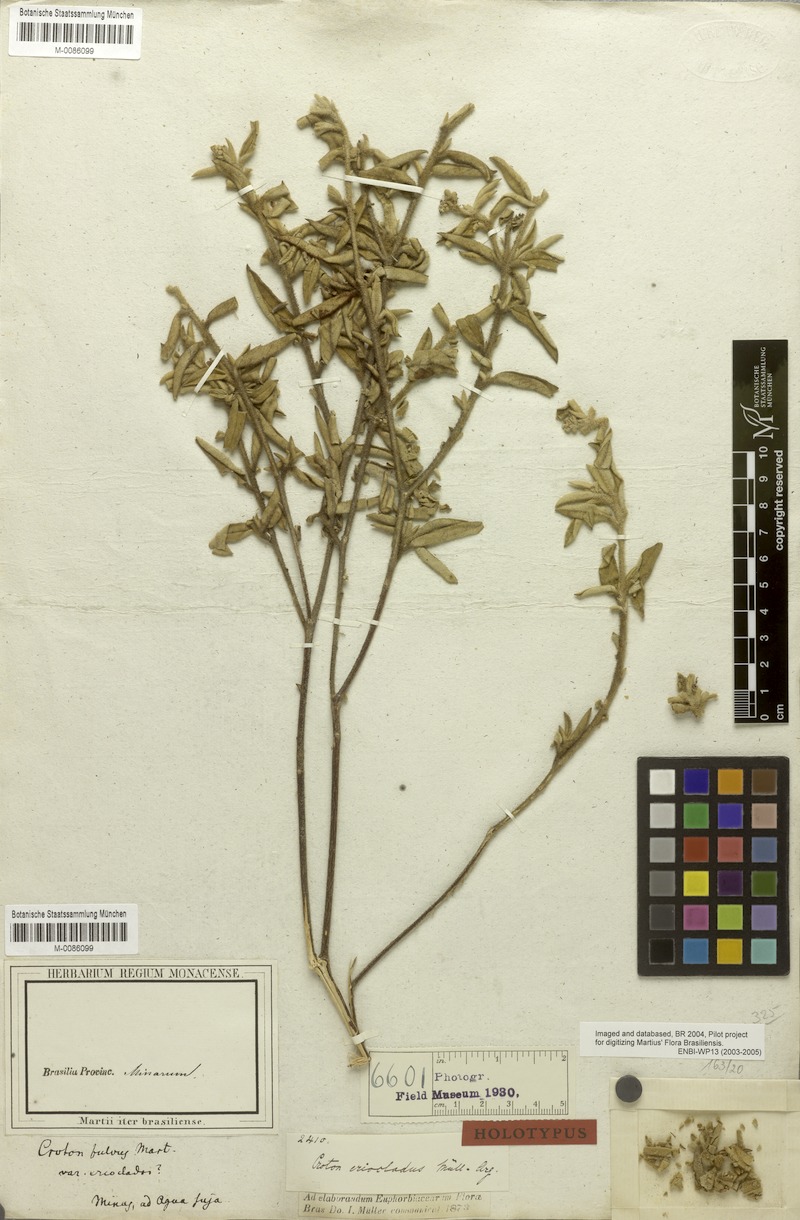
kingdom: Plantae
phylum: Tracheophyta
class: Magnoliopsida
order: Malpighiales
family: Euphorbiaceae
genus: Croton
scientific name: Croton corchoropsis
